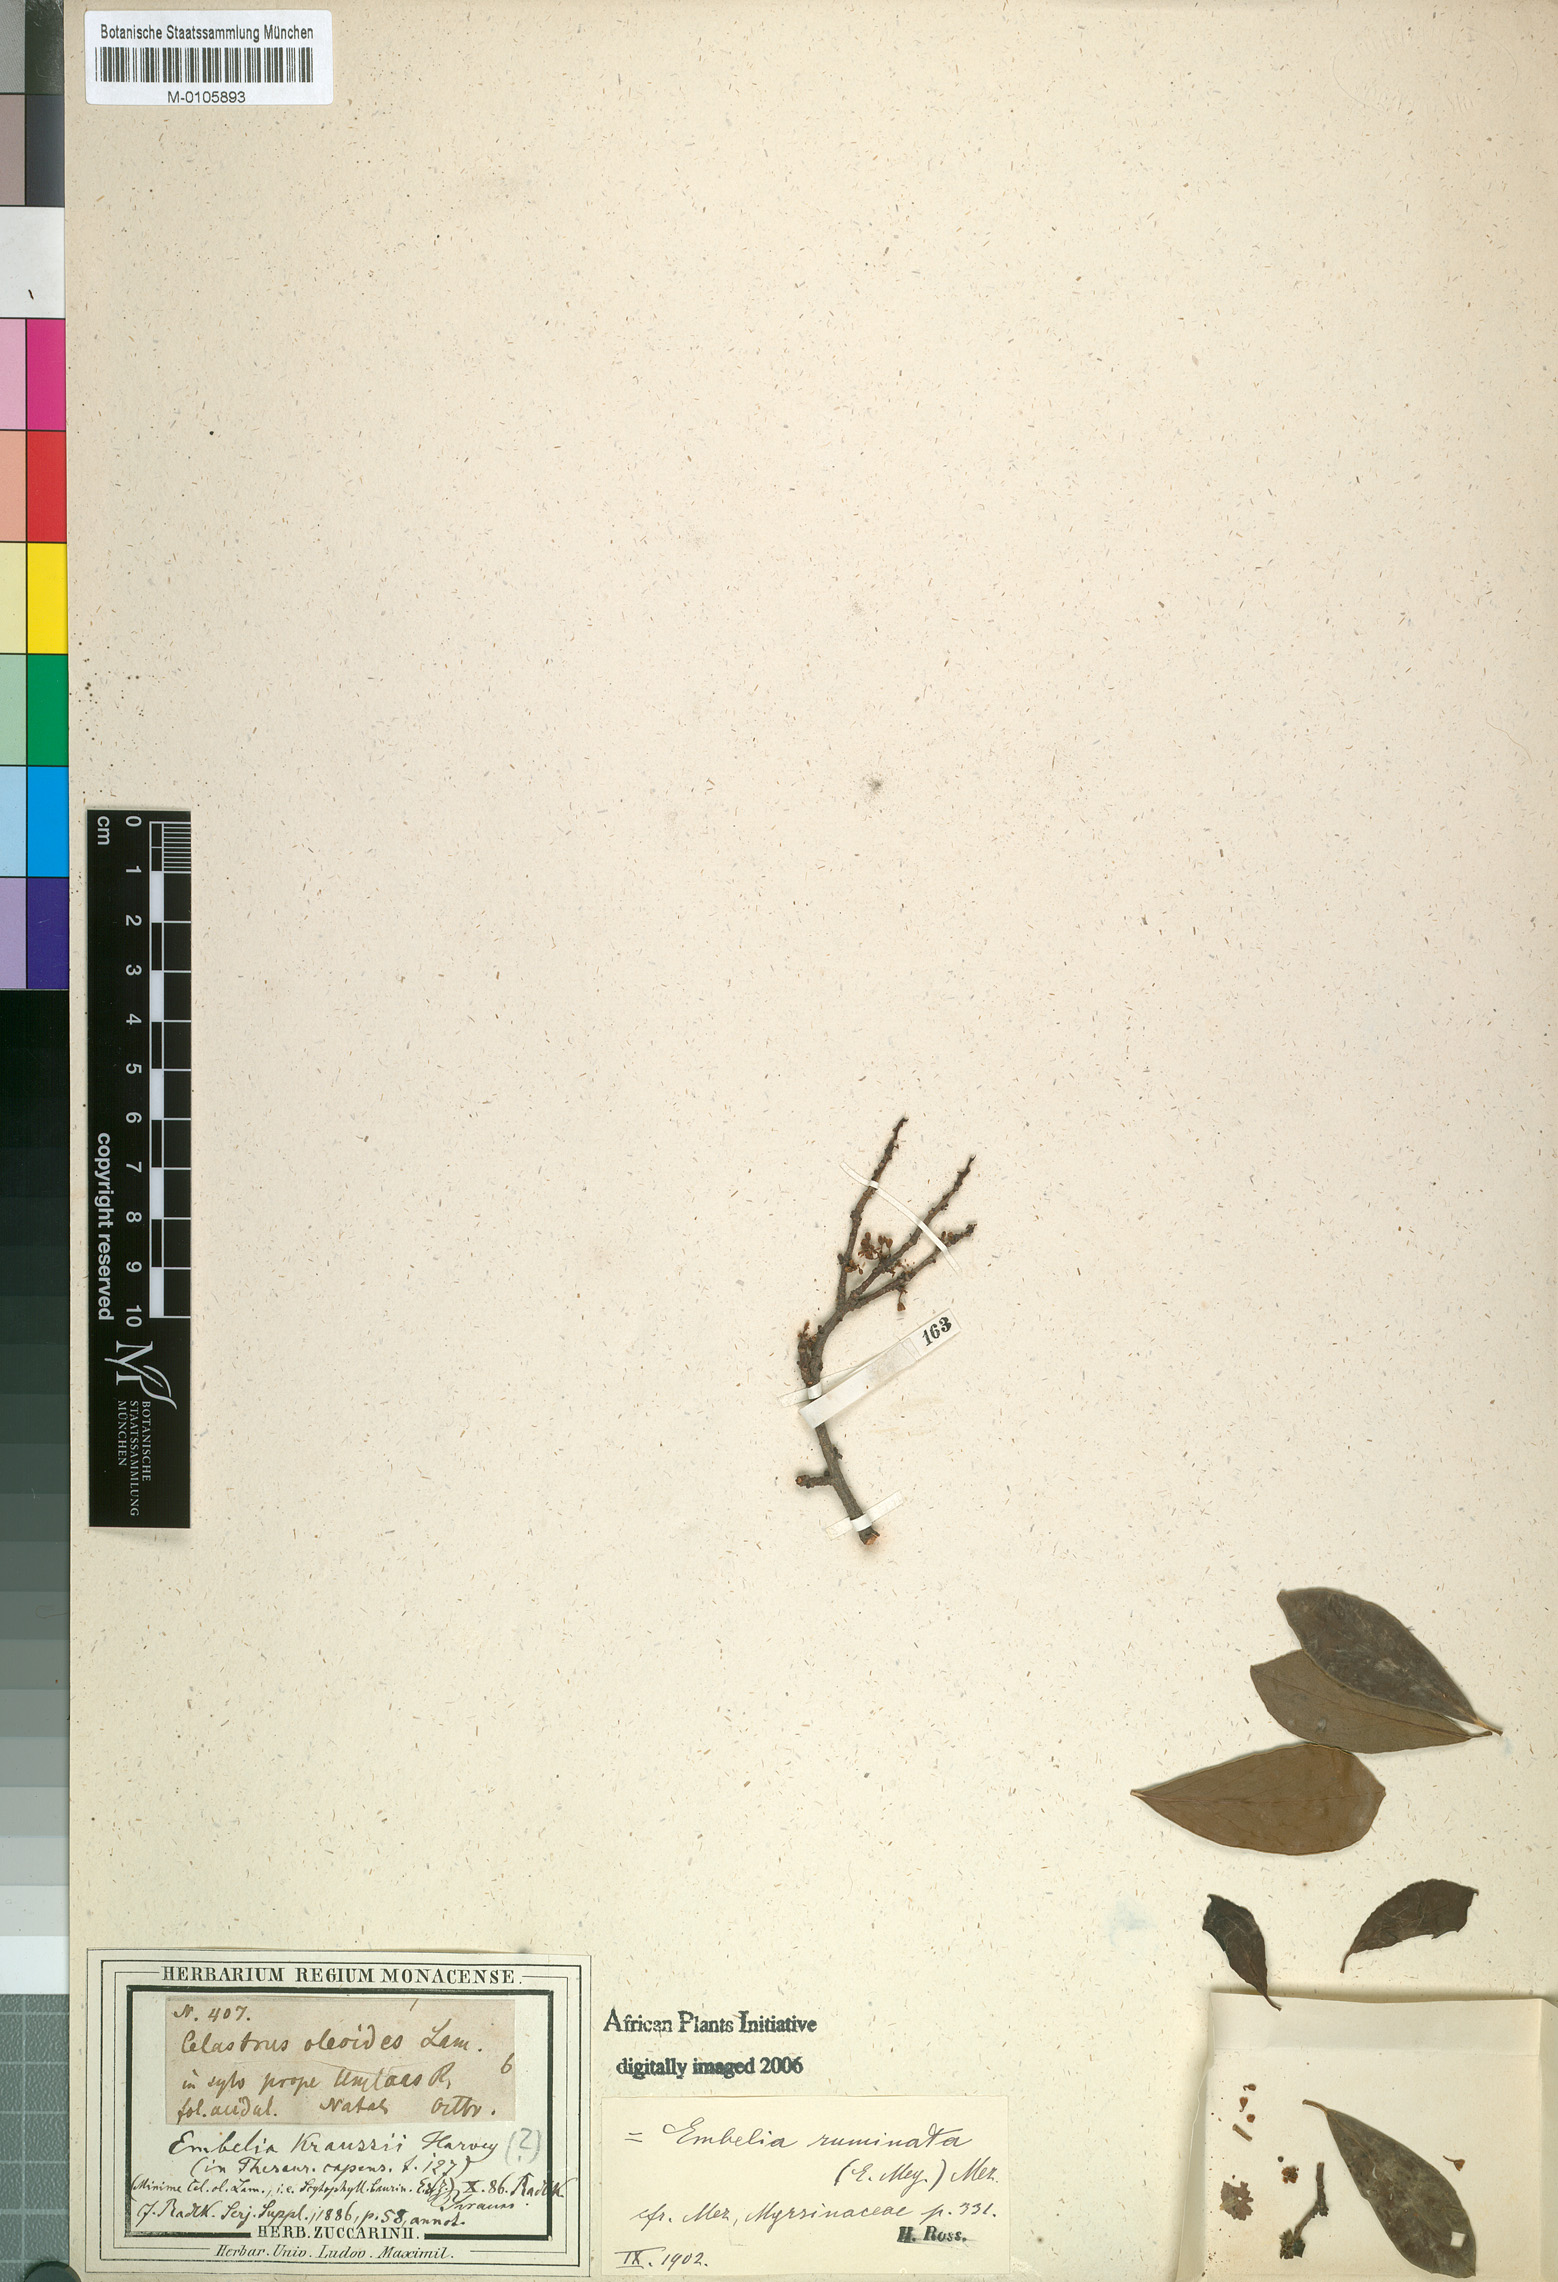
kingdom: Plantae
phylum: Tracheophyta
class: Magnoliopsida
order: Ericales
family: Primulaceae
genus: Embelia
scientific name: Embelia ruminata
